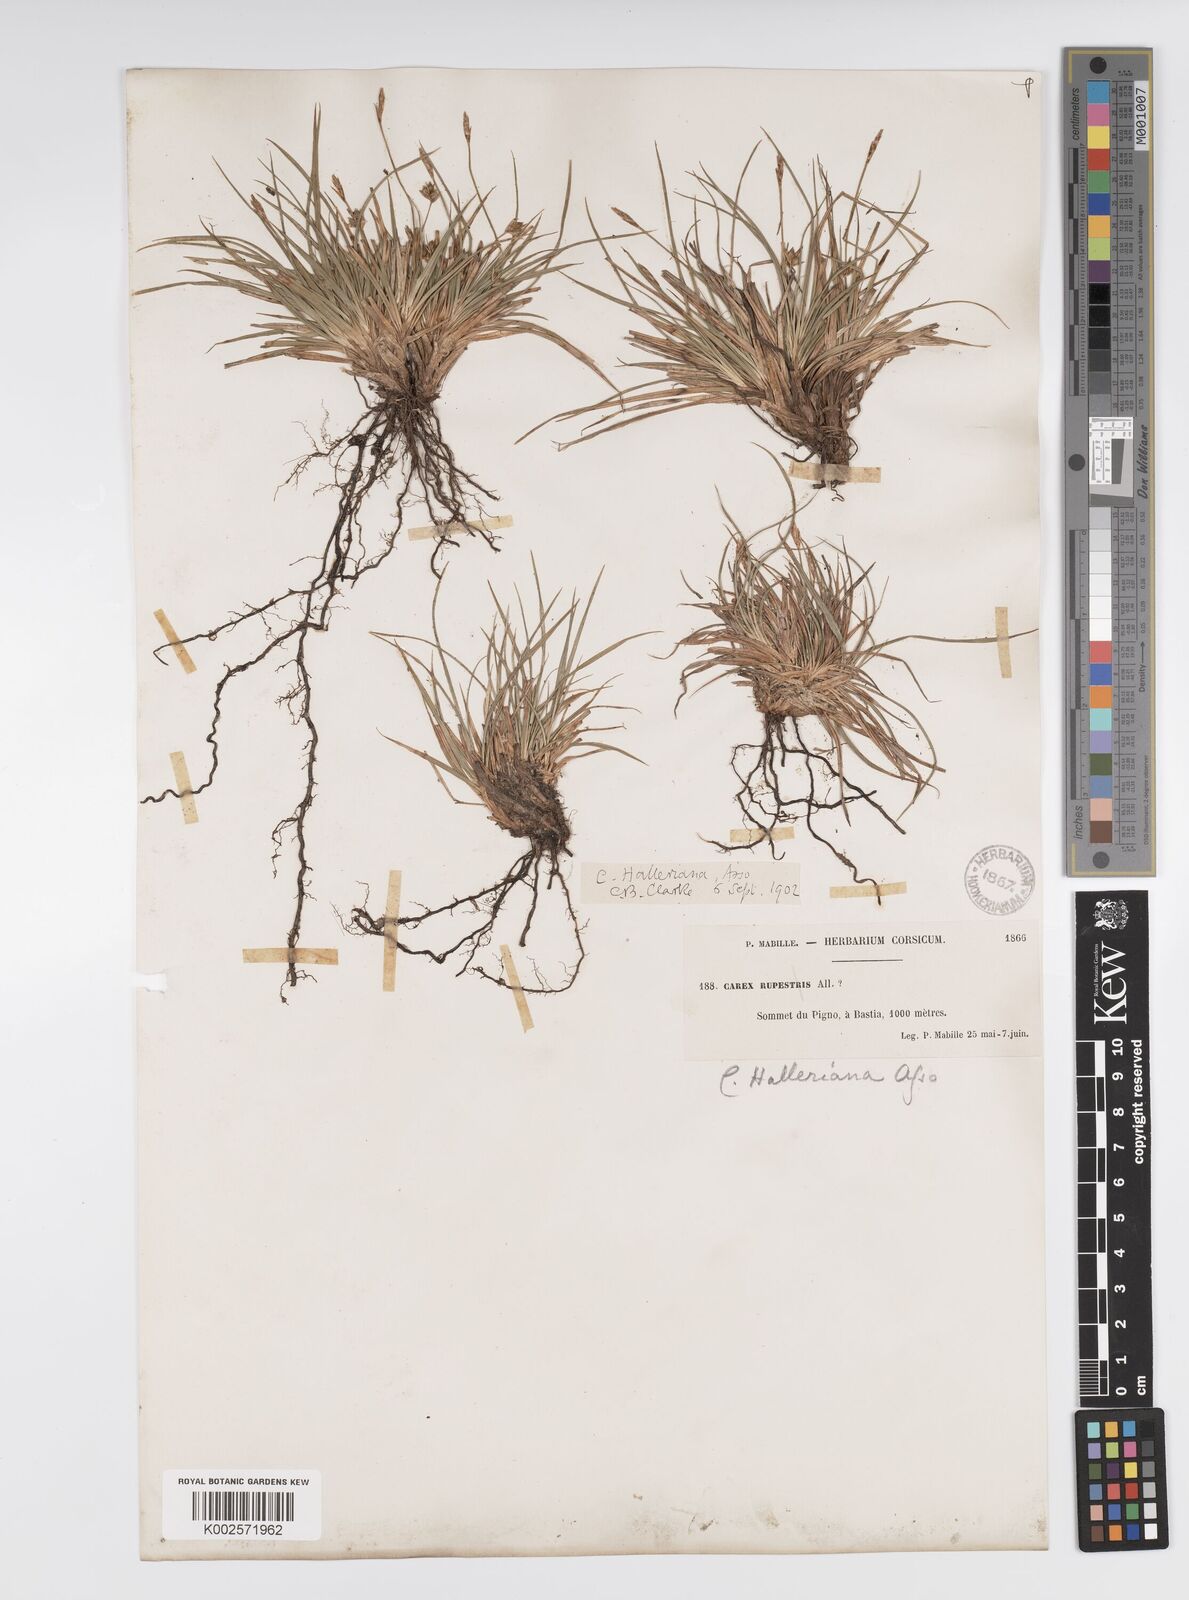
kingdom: Plantae
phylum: Tracheophyta
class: Liliopsida
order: Poales
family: Cyperaceae
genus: Carex
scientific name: Carex halleriana
